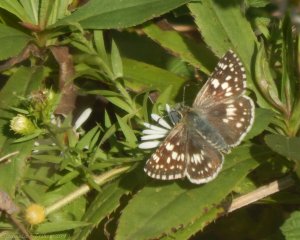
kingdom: Animalia
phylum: Arthropoda
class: Insecta
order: Lepidoptera
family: Hesperiidae
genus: Pyrgus
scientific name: Pyrgus communis
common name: Common Checkered-Skipper
